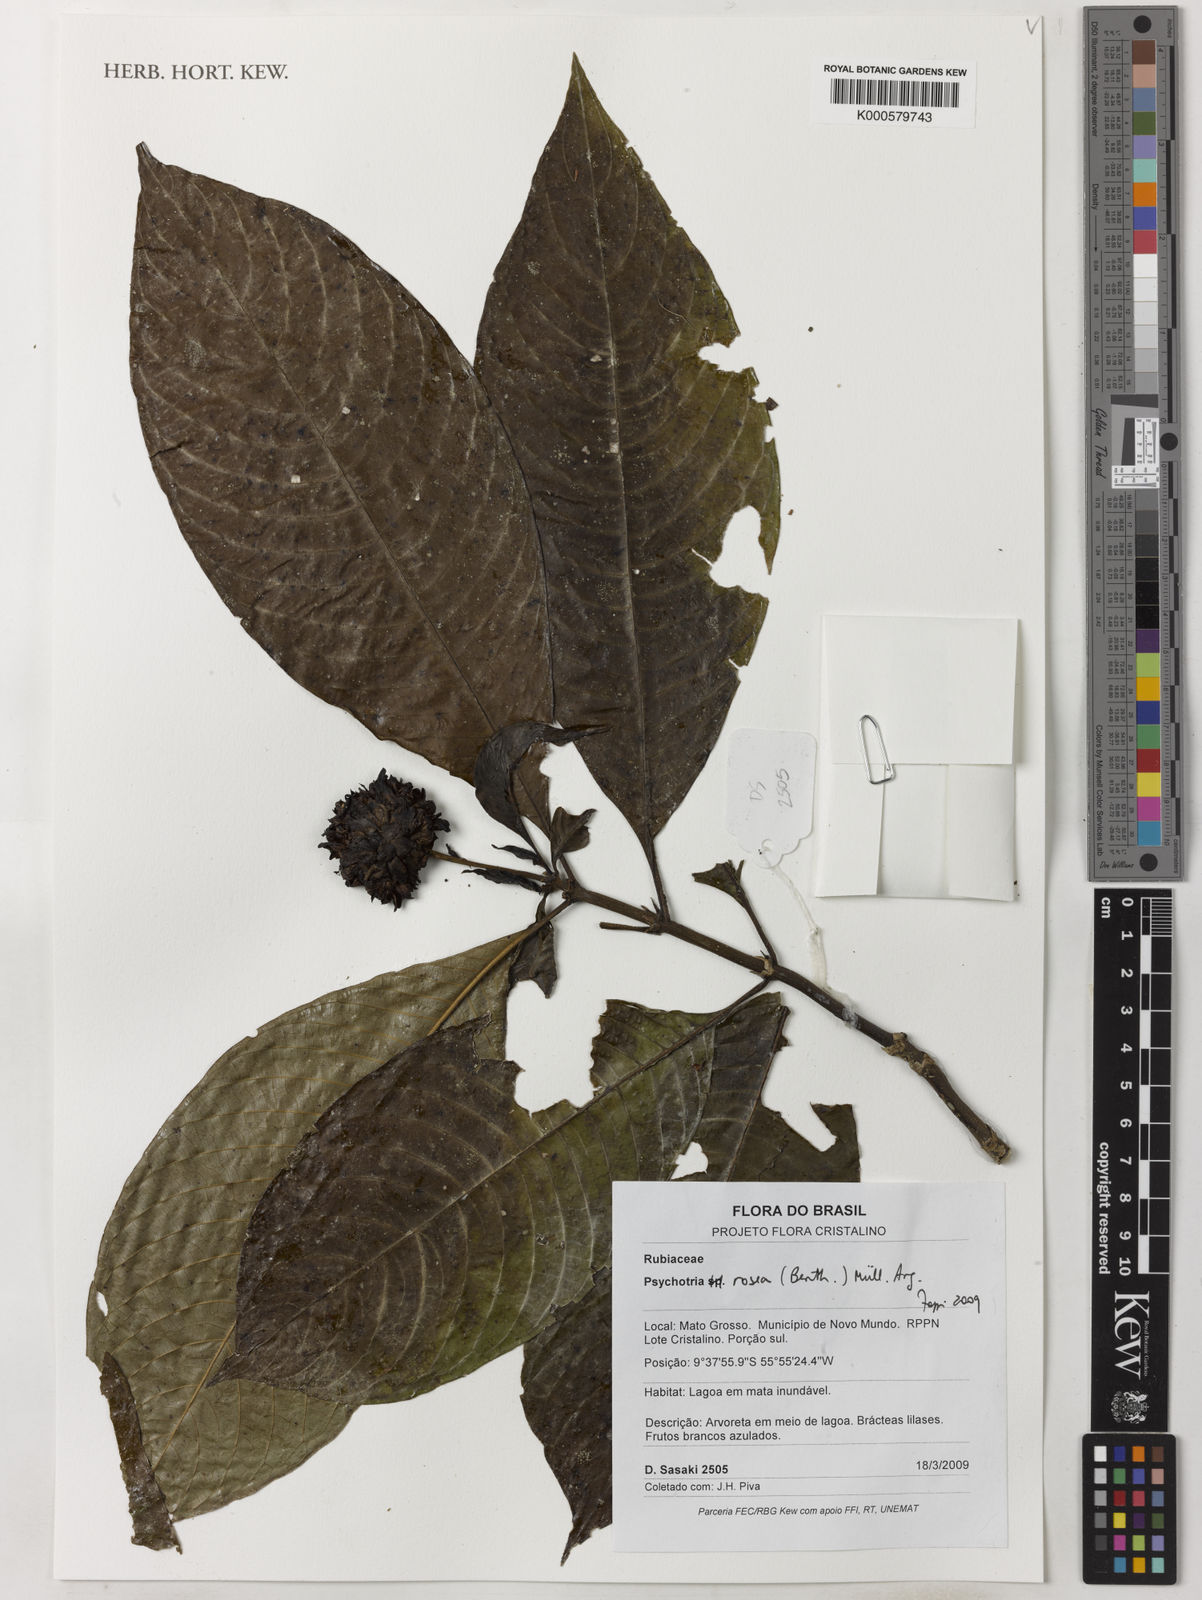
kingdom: Plantae
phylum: Tracheophyta
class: Magnoliopsida
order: Gentianales
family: Rubiaceae
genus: Psychotria
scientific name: Psychotria
